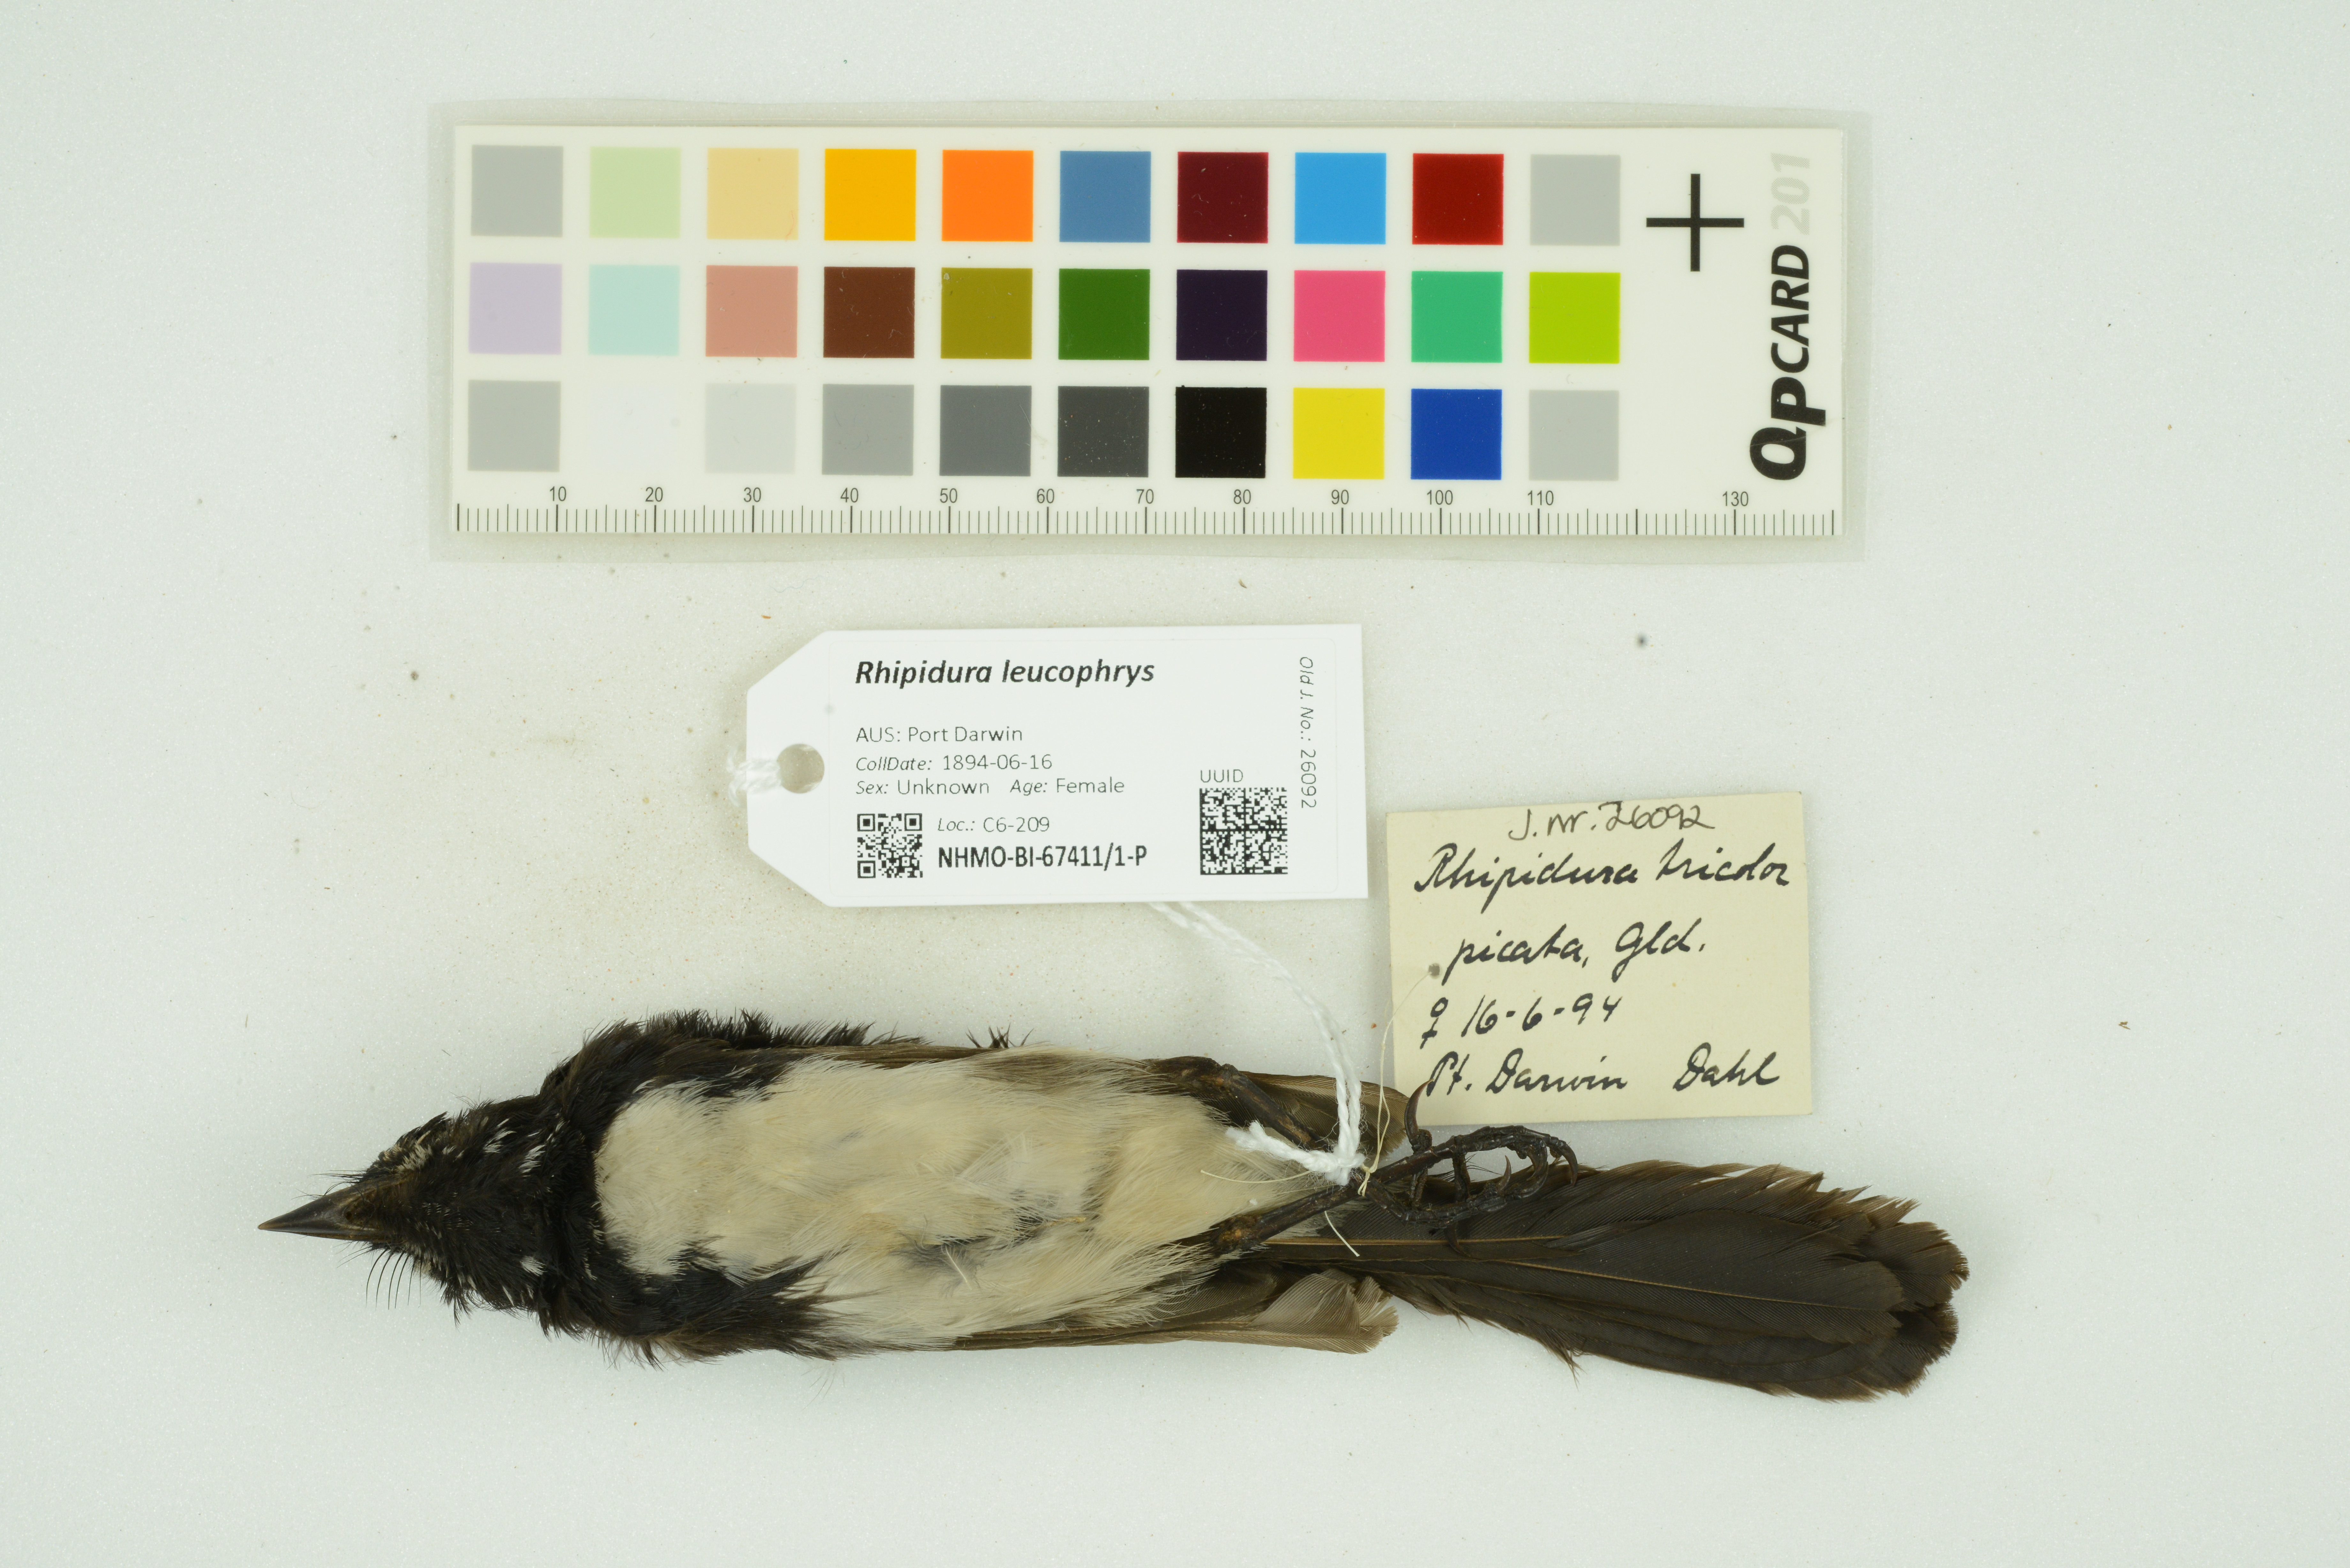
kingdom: Animalia
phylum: Chordata
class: Aves
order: Passeriformes
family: Rhipiduridae
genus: Rhipidura
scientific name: Rhipidura leucophrys
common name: Willie wagtail
